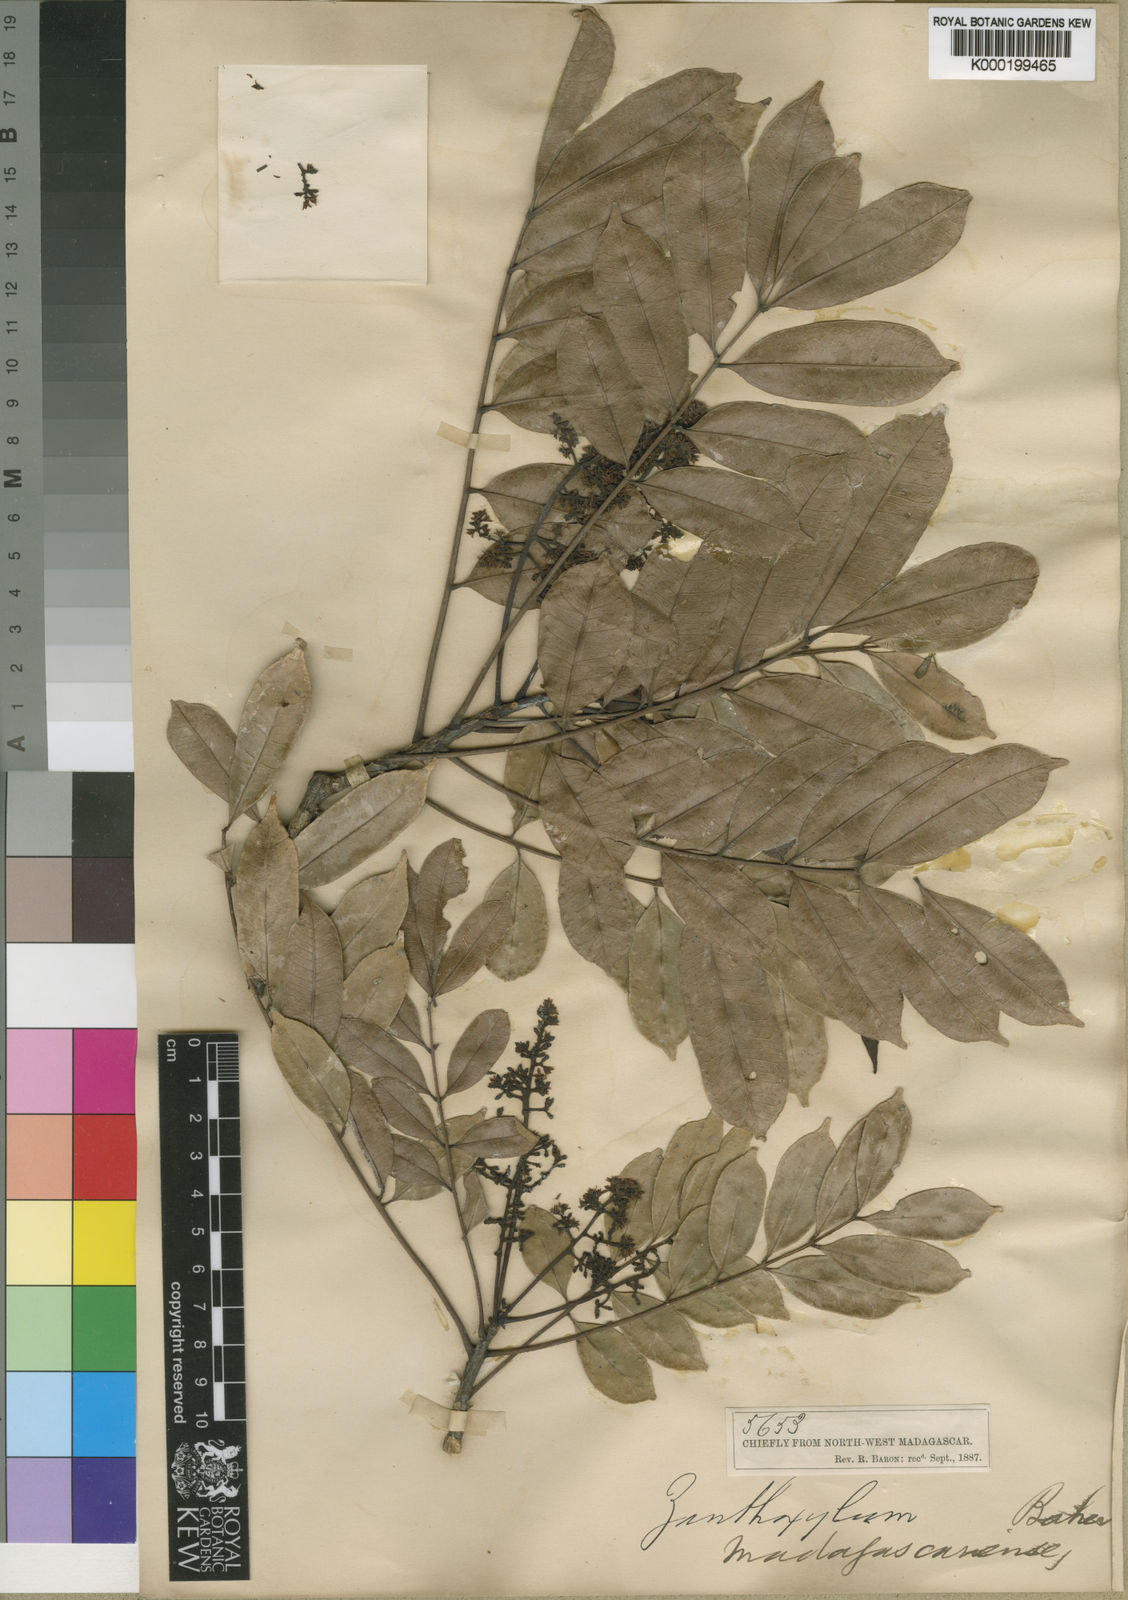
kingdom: Plantae
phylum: Tracheophyta
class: Magnoliopsida
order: Sapindales
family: Rutaceae
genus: Zanthoxylum
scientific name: Zanthoxylum madagascariense
